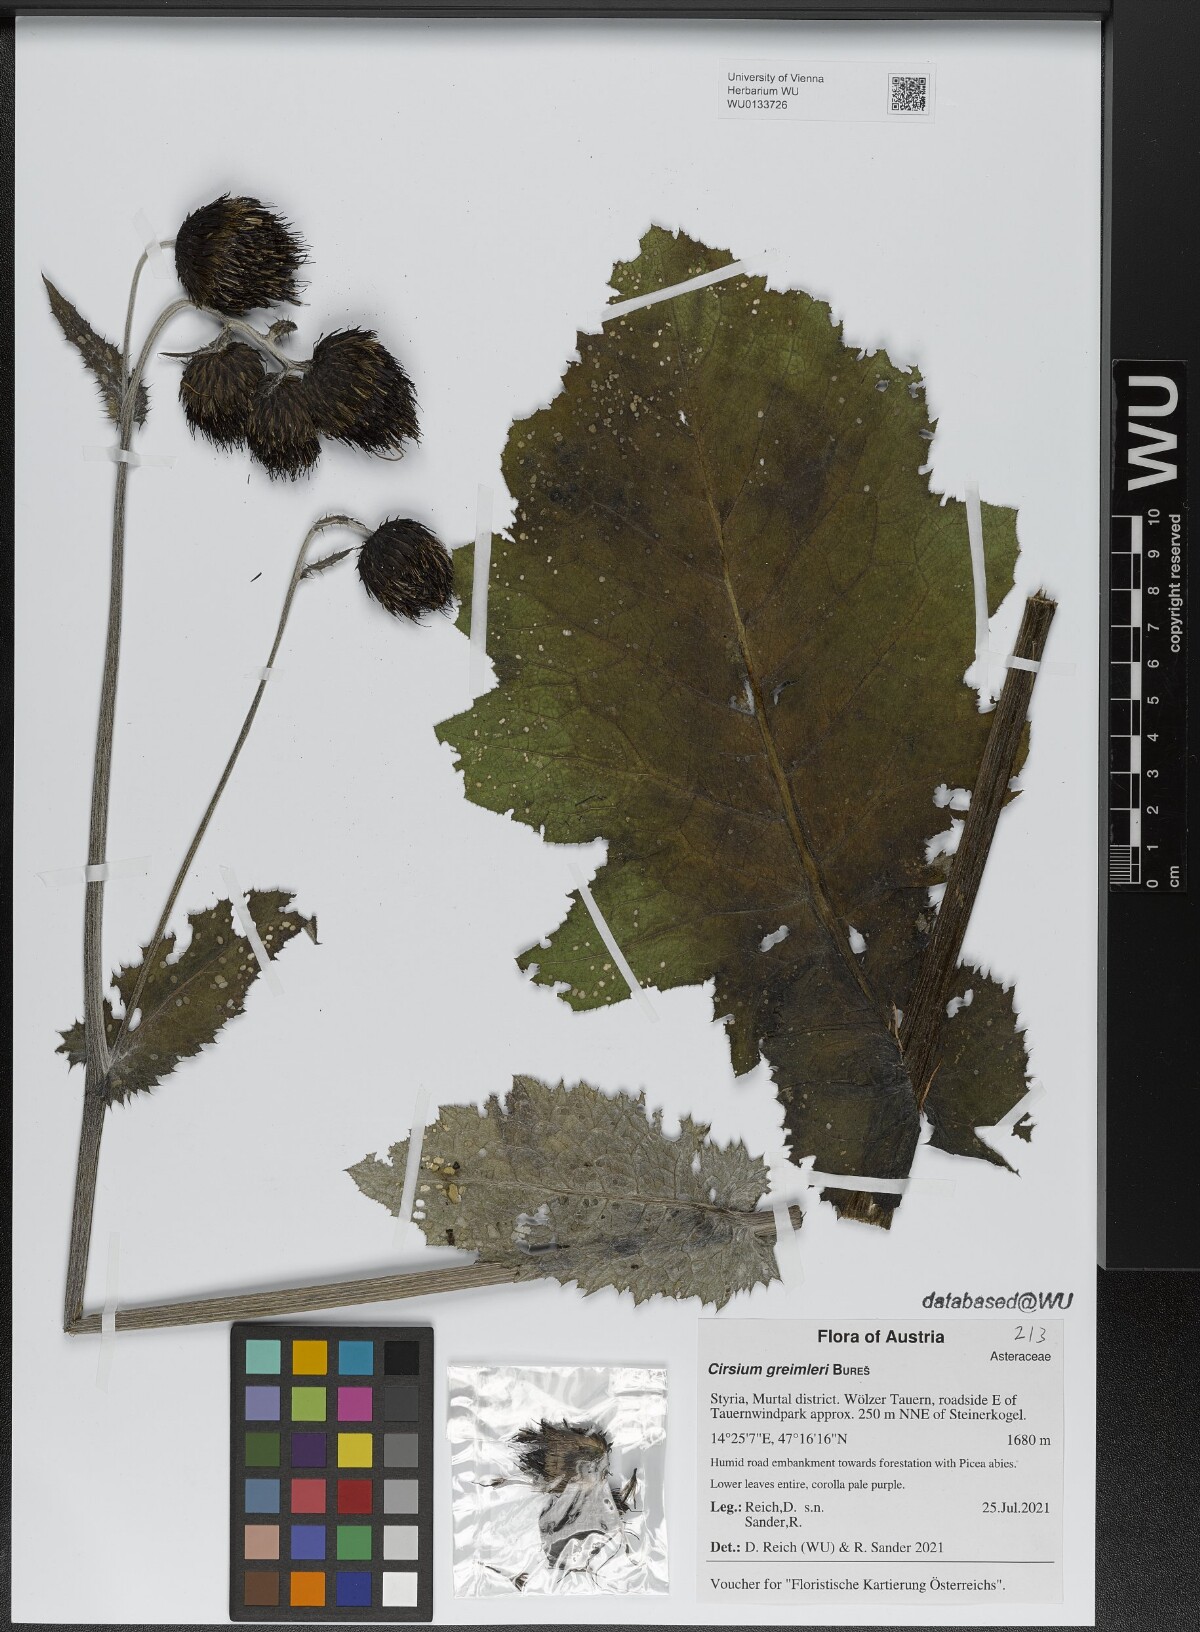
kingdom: Plantae
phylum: Tracheophyta
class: Magnoliopsida
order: Asterales
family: Asteraceae
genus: Cirsium
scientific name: Cirsium greimleri
